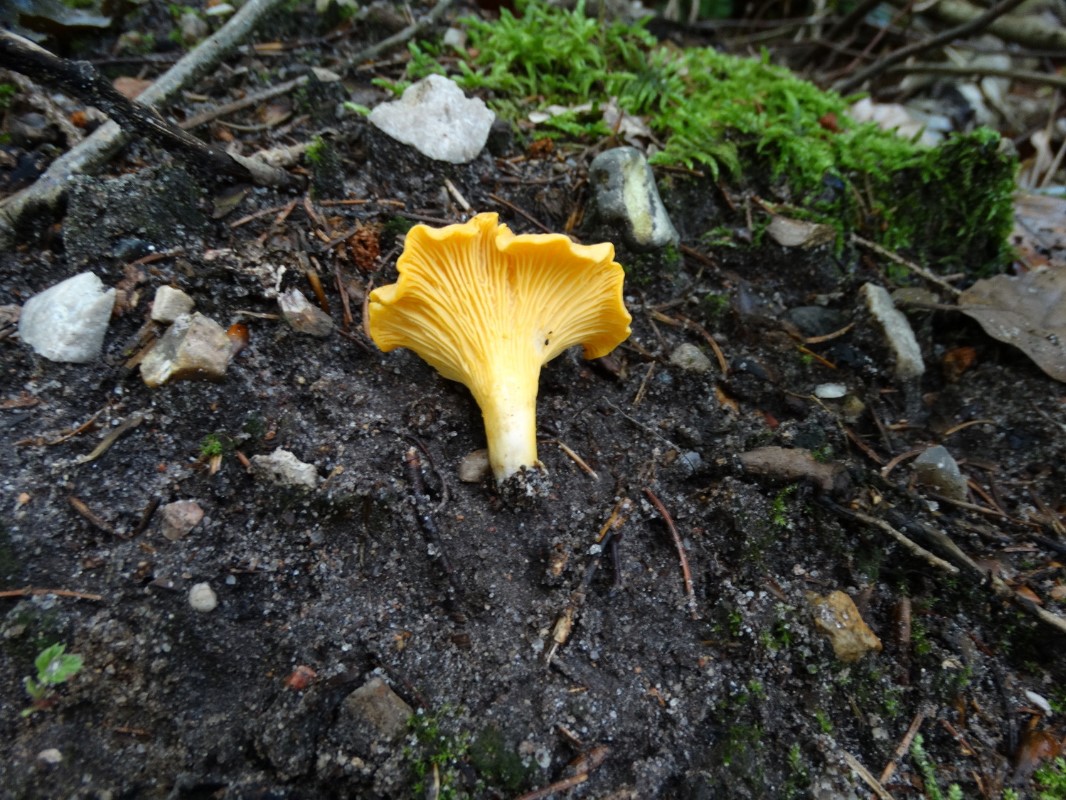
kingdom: Fungi
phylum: Basidiomycota
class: Agaricomycetes
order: Cantharellales
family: Hydnaceae
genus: Cantharellus
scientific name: Cantharellus cibarius
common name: almindelig kantarel
